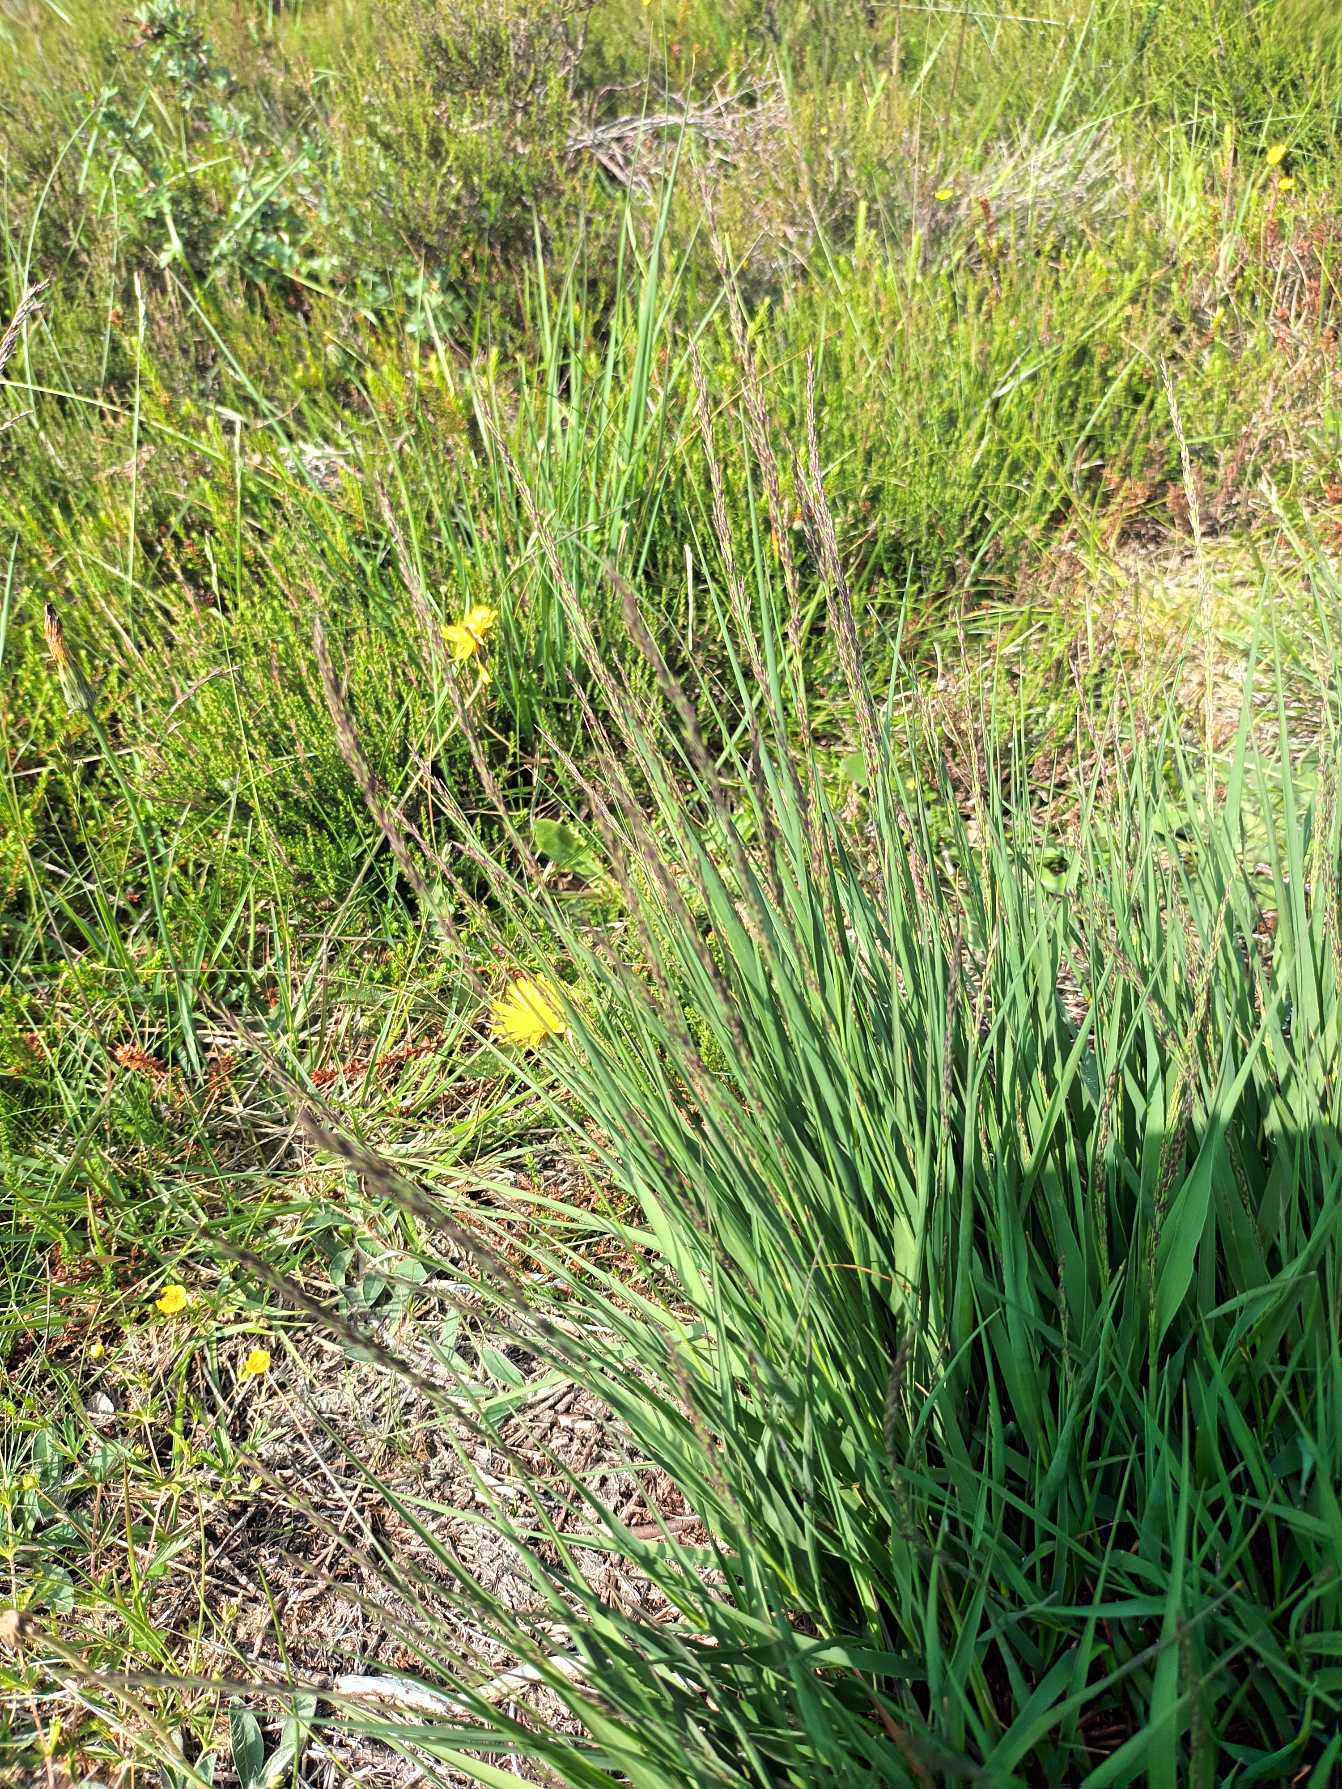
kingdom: Plantae
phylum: Tracheophyta
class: Liliopsida
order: Poales
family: Poaceae
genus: Molinia
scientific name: Molinia caerulea
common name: Blåtop
